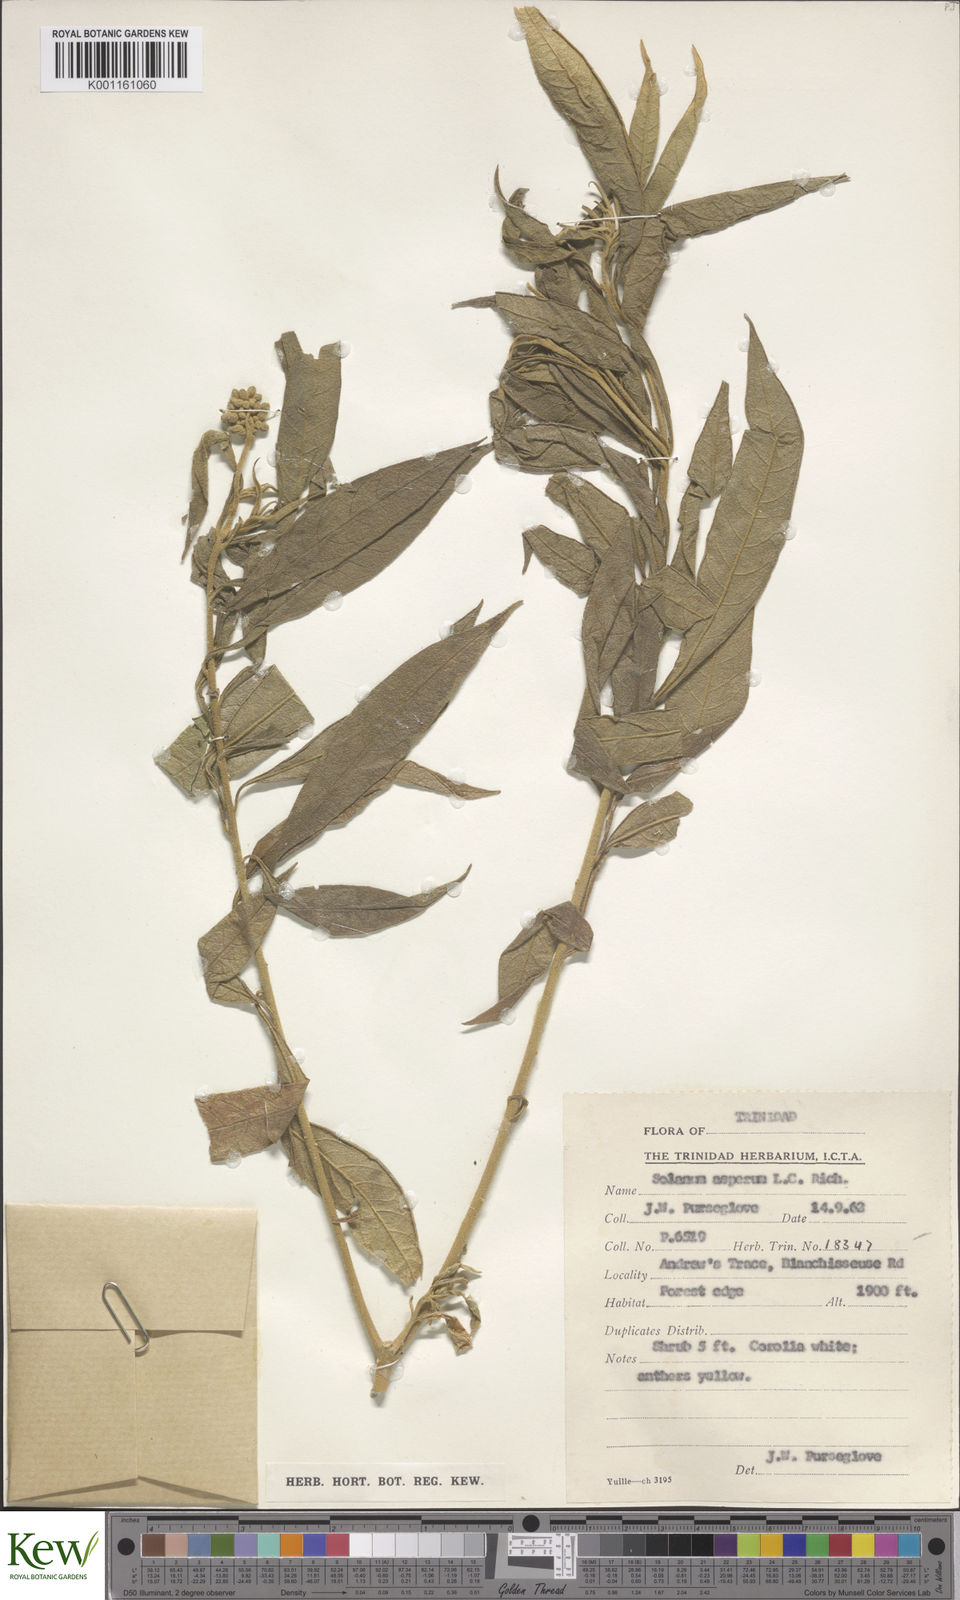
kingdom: Plantae
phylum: Tracheophyta
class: Magnoliopsida
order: Solanales
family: Solanaceae
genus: Solanum
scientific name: Solanum asperum
